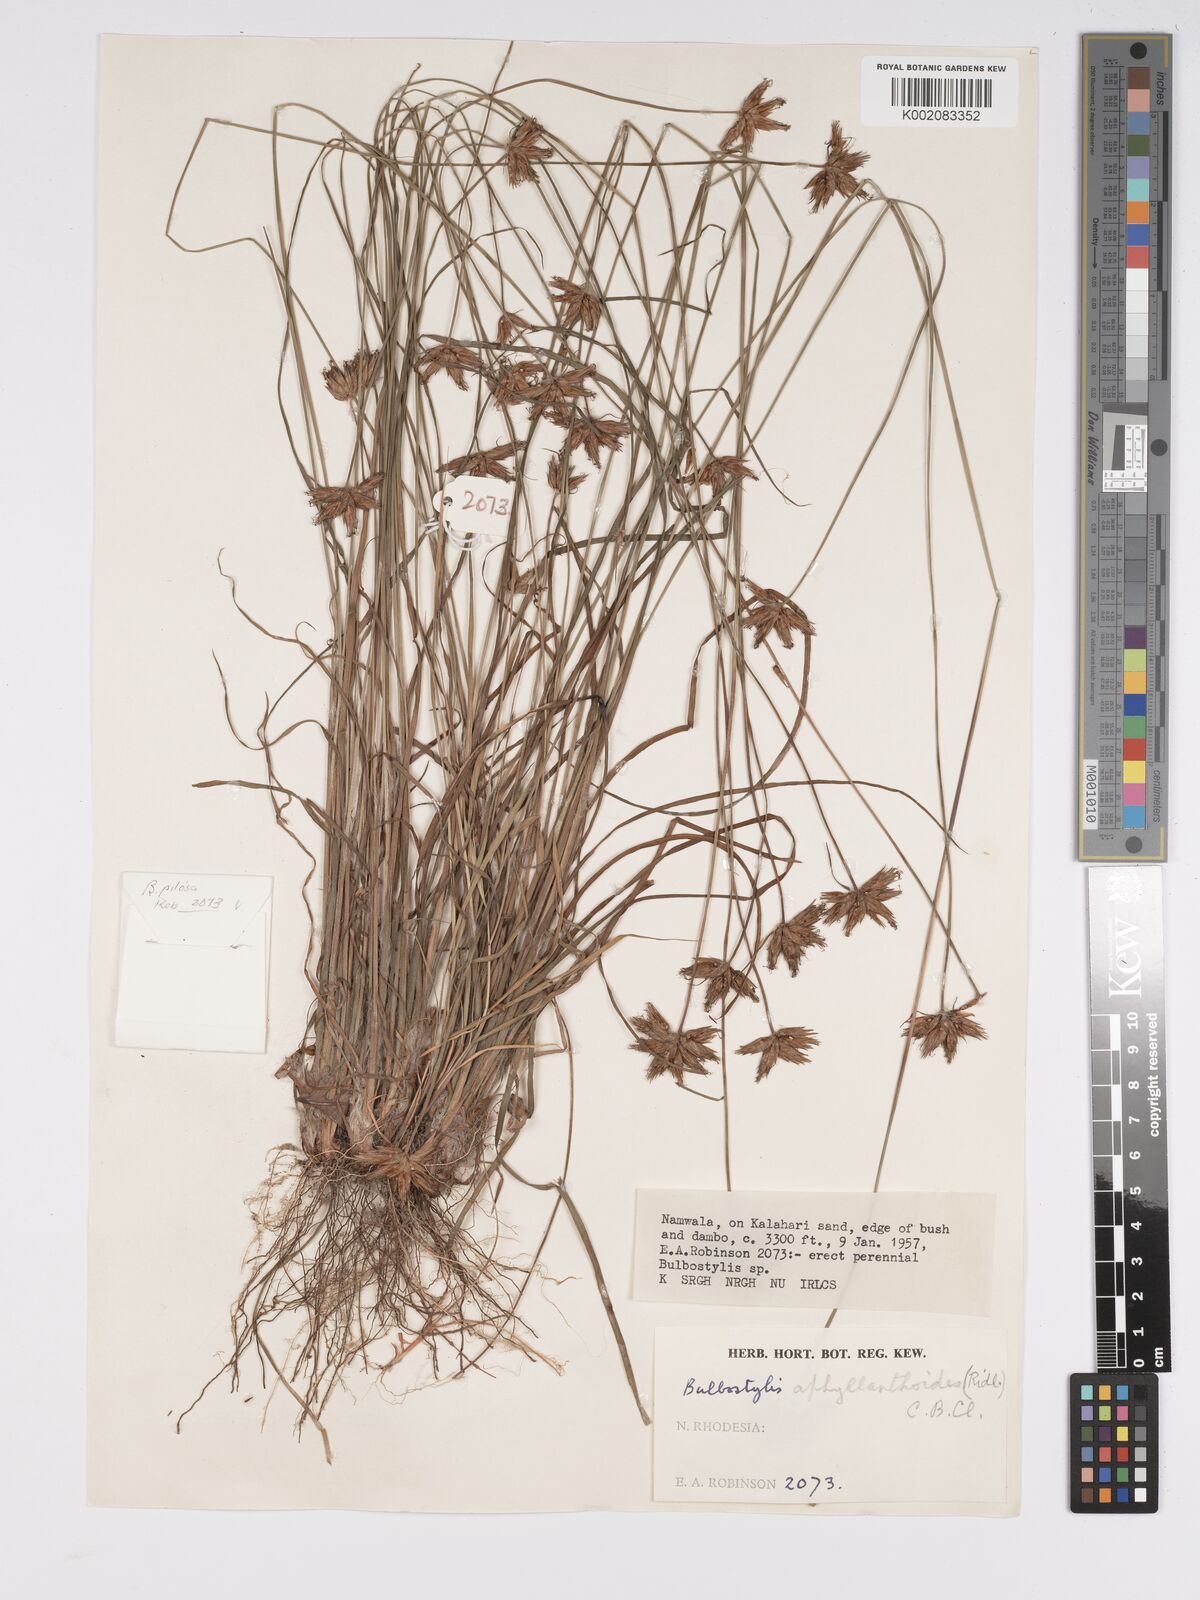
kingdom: Plantae
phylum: Tracheophyta
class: Liliopsida
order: Poales
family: Cyperaceae
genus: Bulbostylis
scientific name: Bulbostylis pilosa
